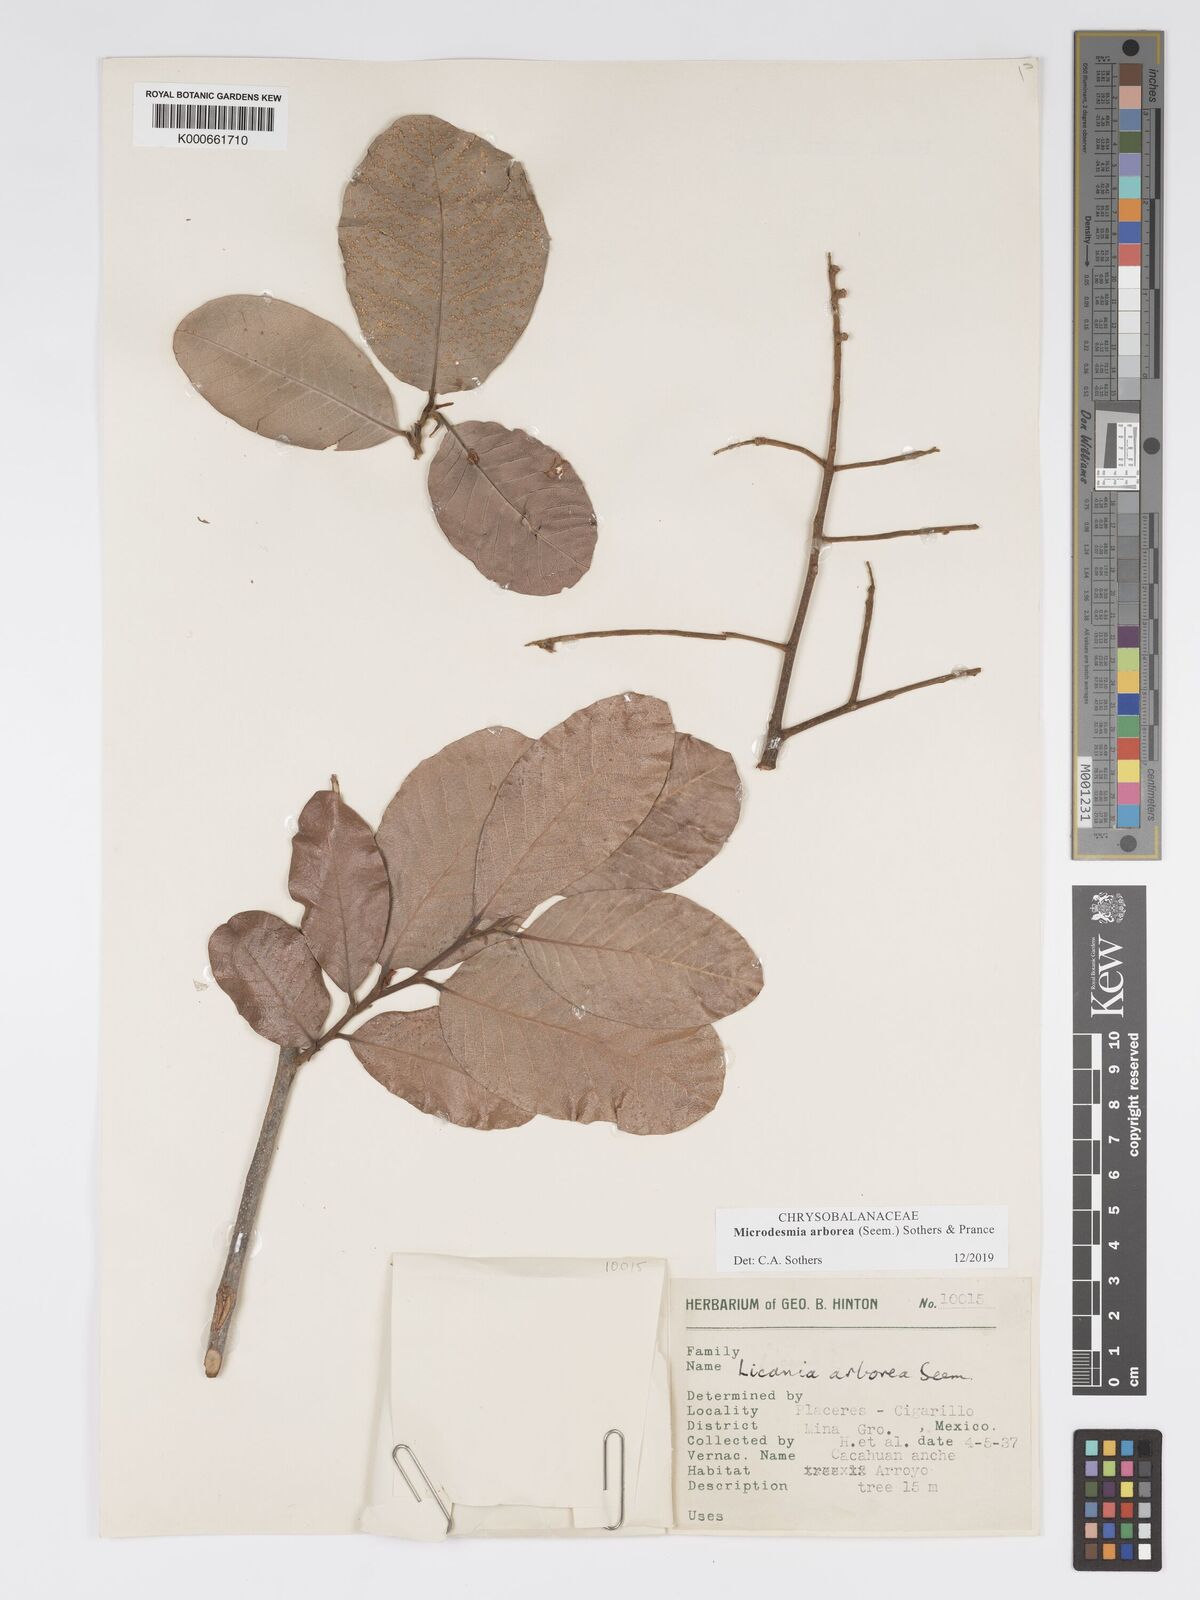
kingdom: Plantae
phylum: Tracheophyta
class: Magnoliopsida
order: Malpighiales
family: Chrysobalanaceae
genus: Licania
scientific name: Licania
